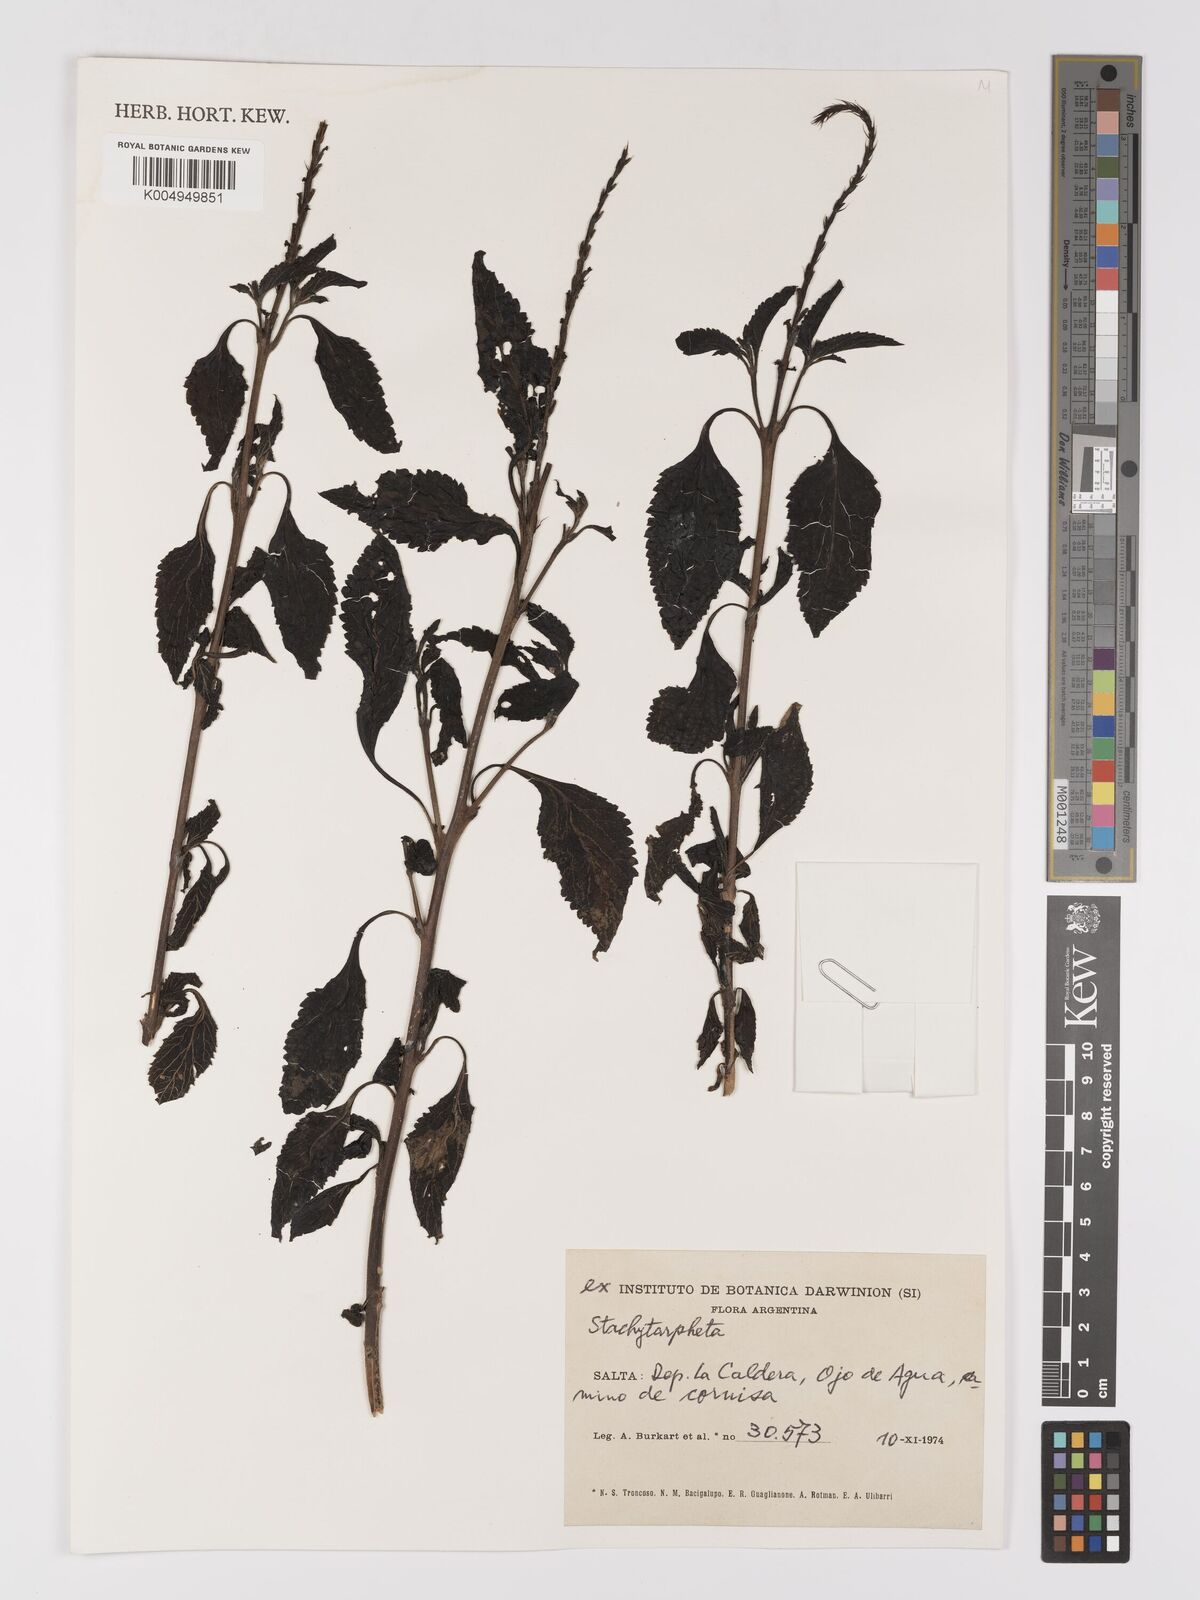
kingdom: Plantae
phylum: Tracheophyta
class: Magnoliopsida
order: Lamiales
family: Verbenaceae
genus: Stachytarpheta
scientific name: Stachytarpheta
